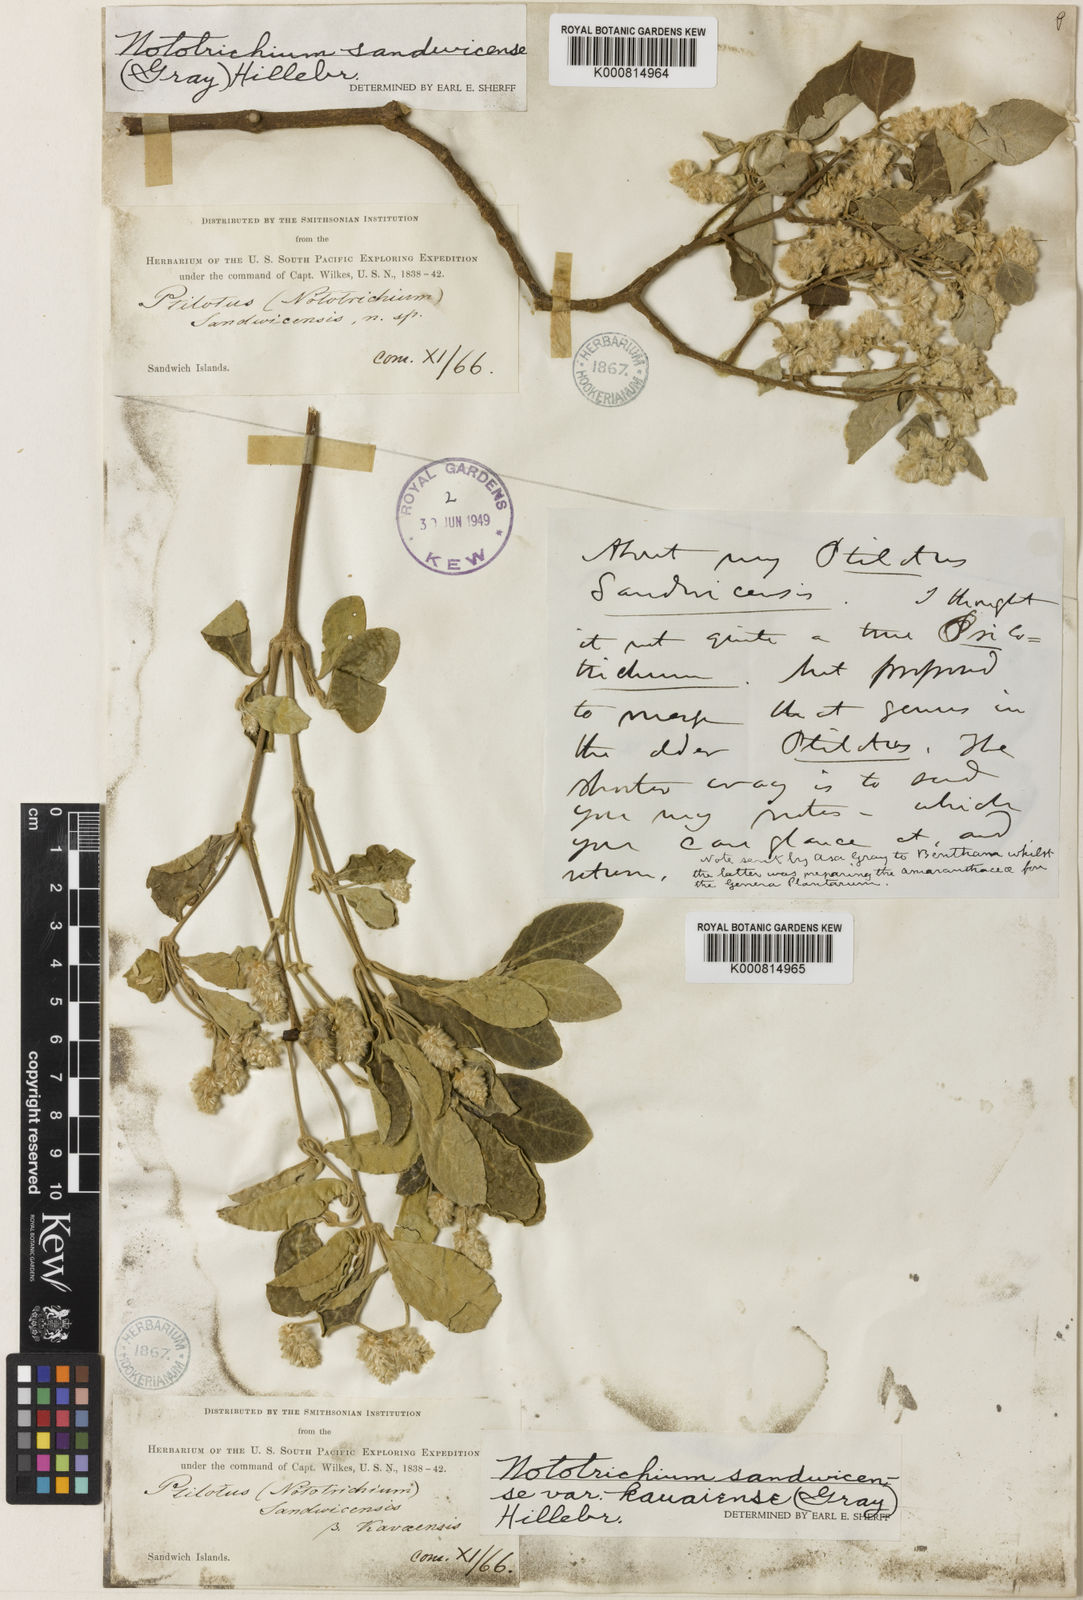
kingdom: Plantae
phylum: Tracheophyta
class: Magnoliopsida
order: Caryophyllales
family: Amaranthaceae
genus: Nototrichium
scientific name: Nototrichium
